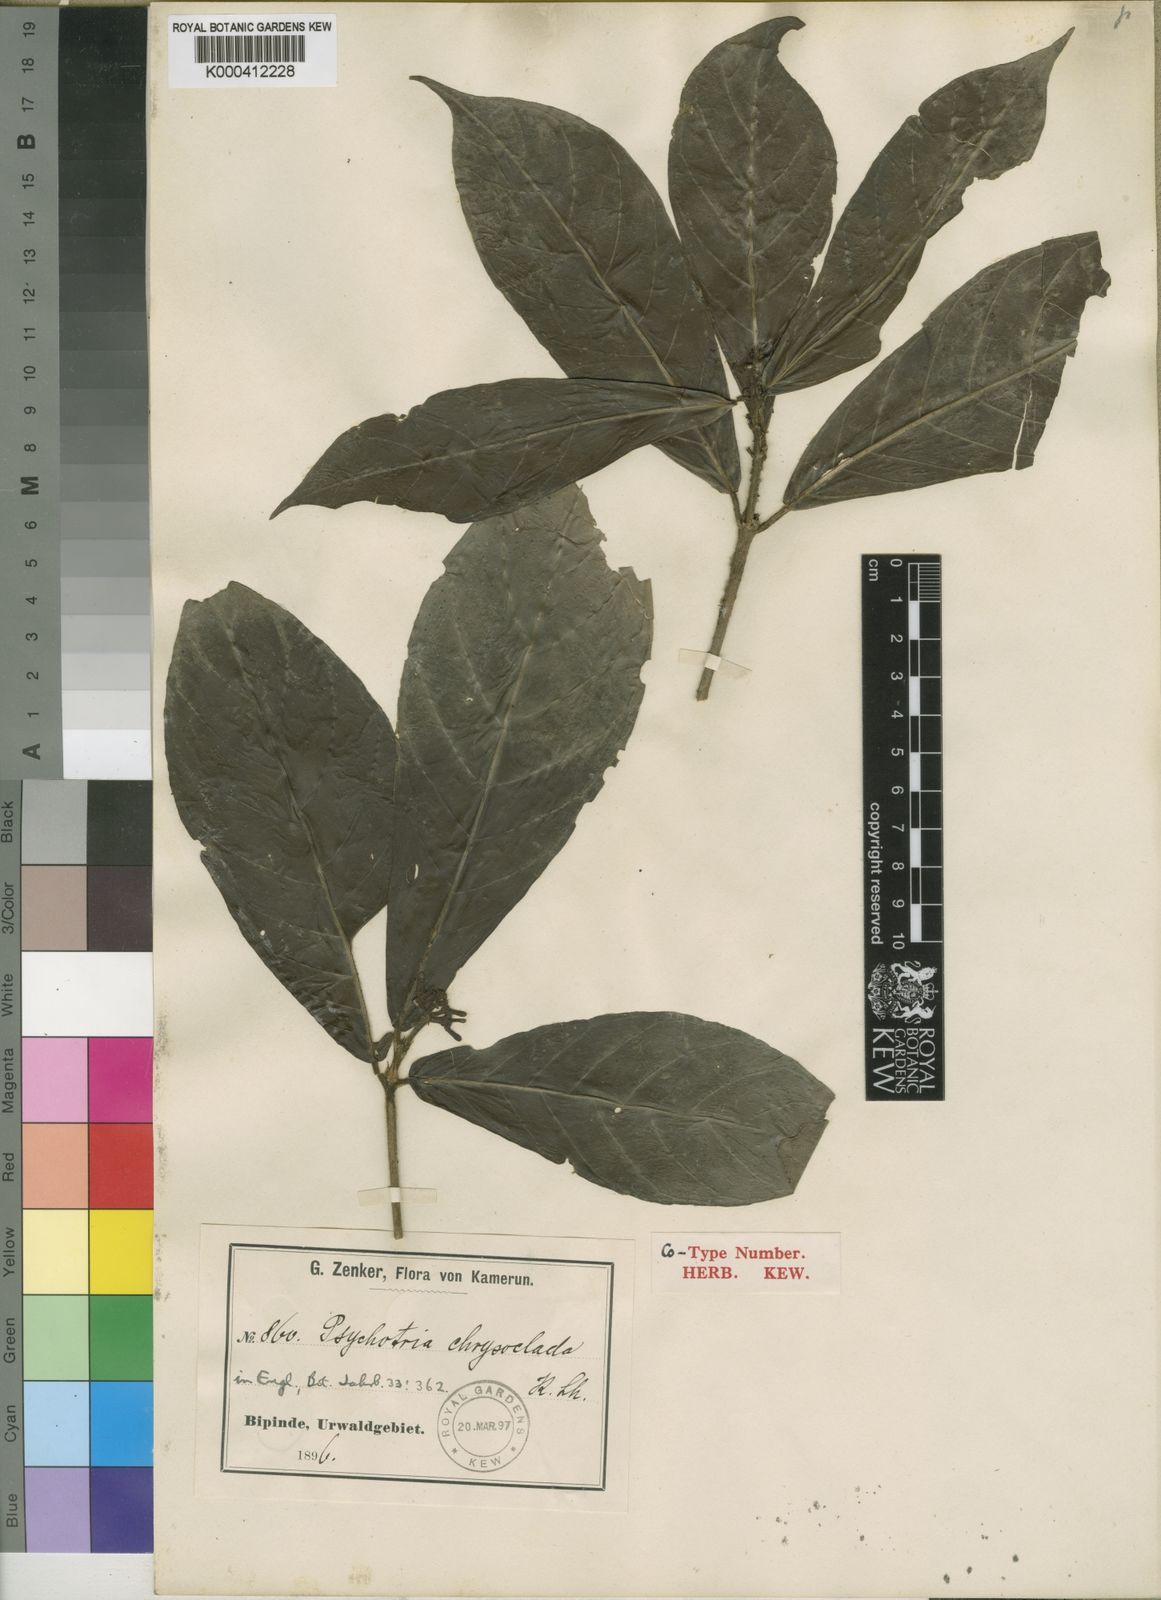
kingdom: Plantae
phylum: Tracheophyta
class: Magnoliopsida
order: Gentianales
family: Rubiaceae
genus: Chassalia
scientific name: Chassalia
